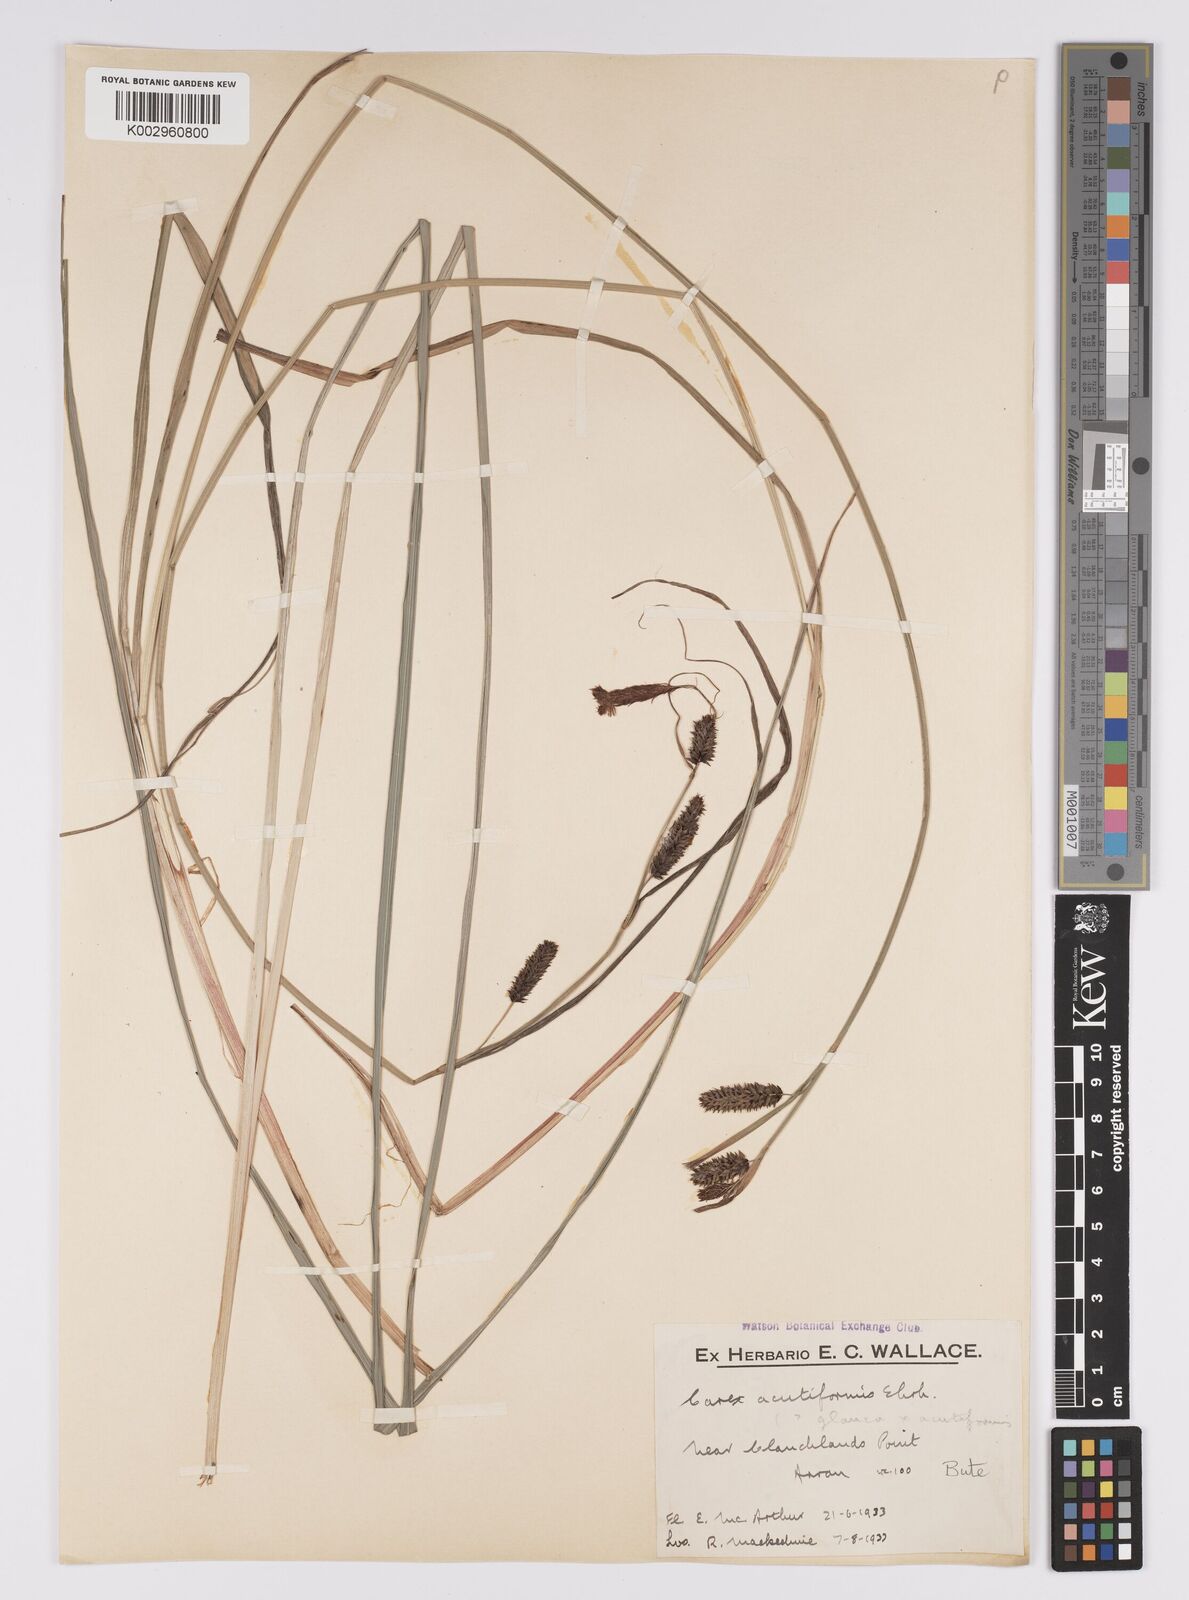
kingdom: Plantae
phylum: Tracheophyta
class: Liliopsida
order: Poales
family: Cyperaceae
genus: Carex
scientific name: Carex acutiformis
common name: Lesser pond-sedge
